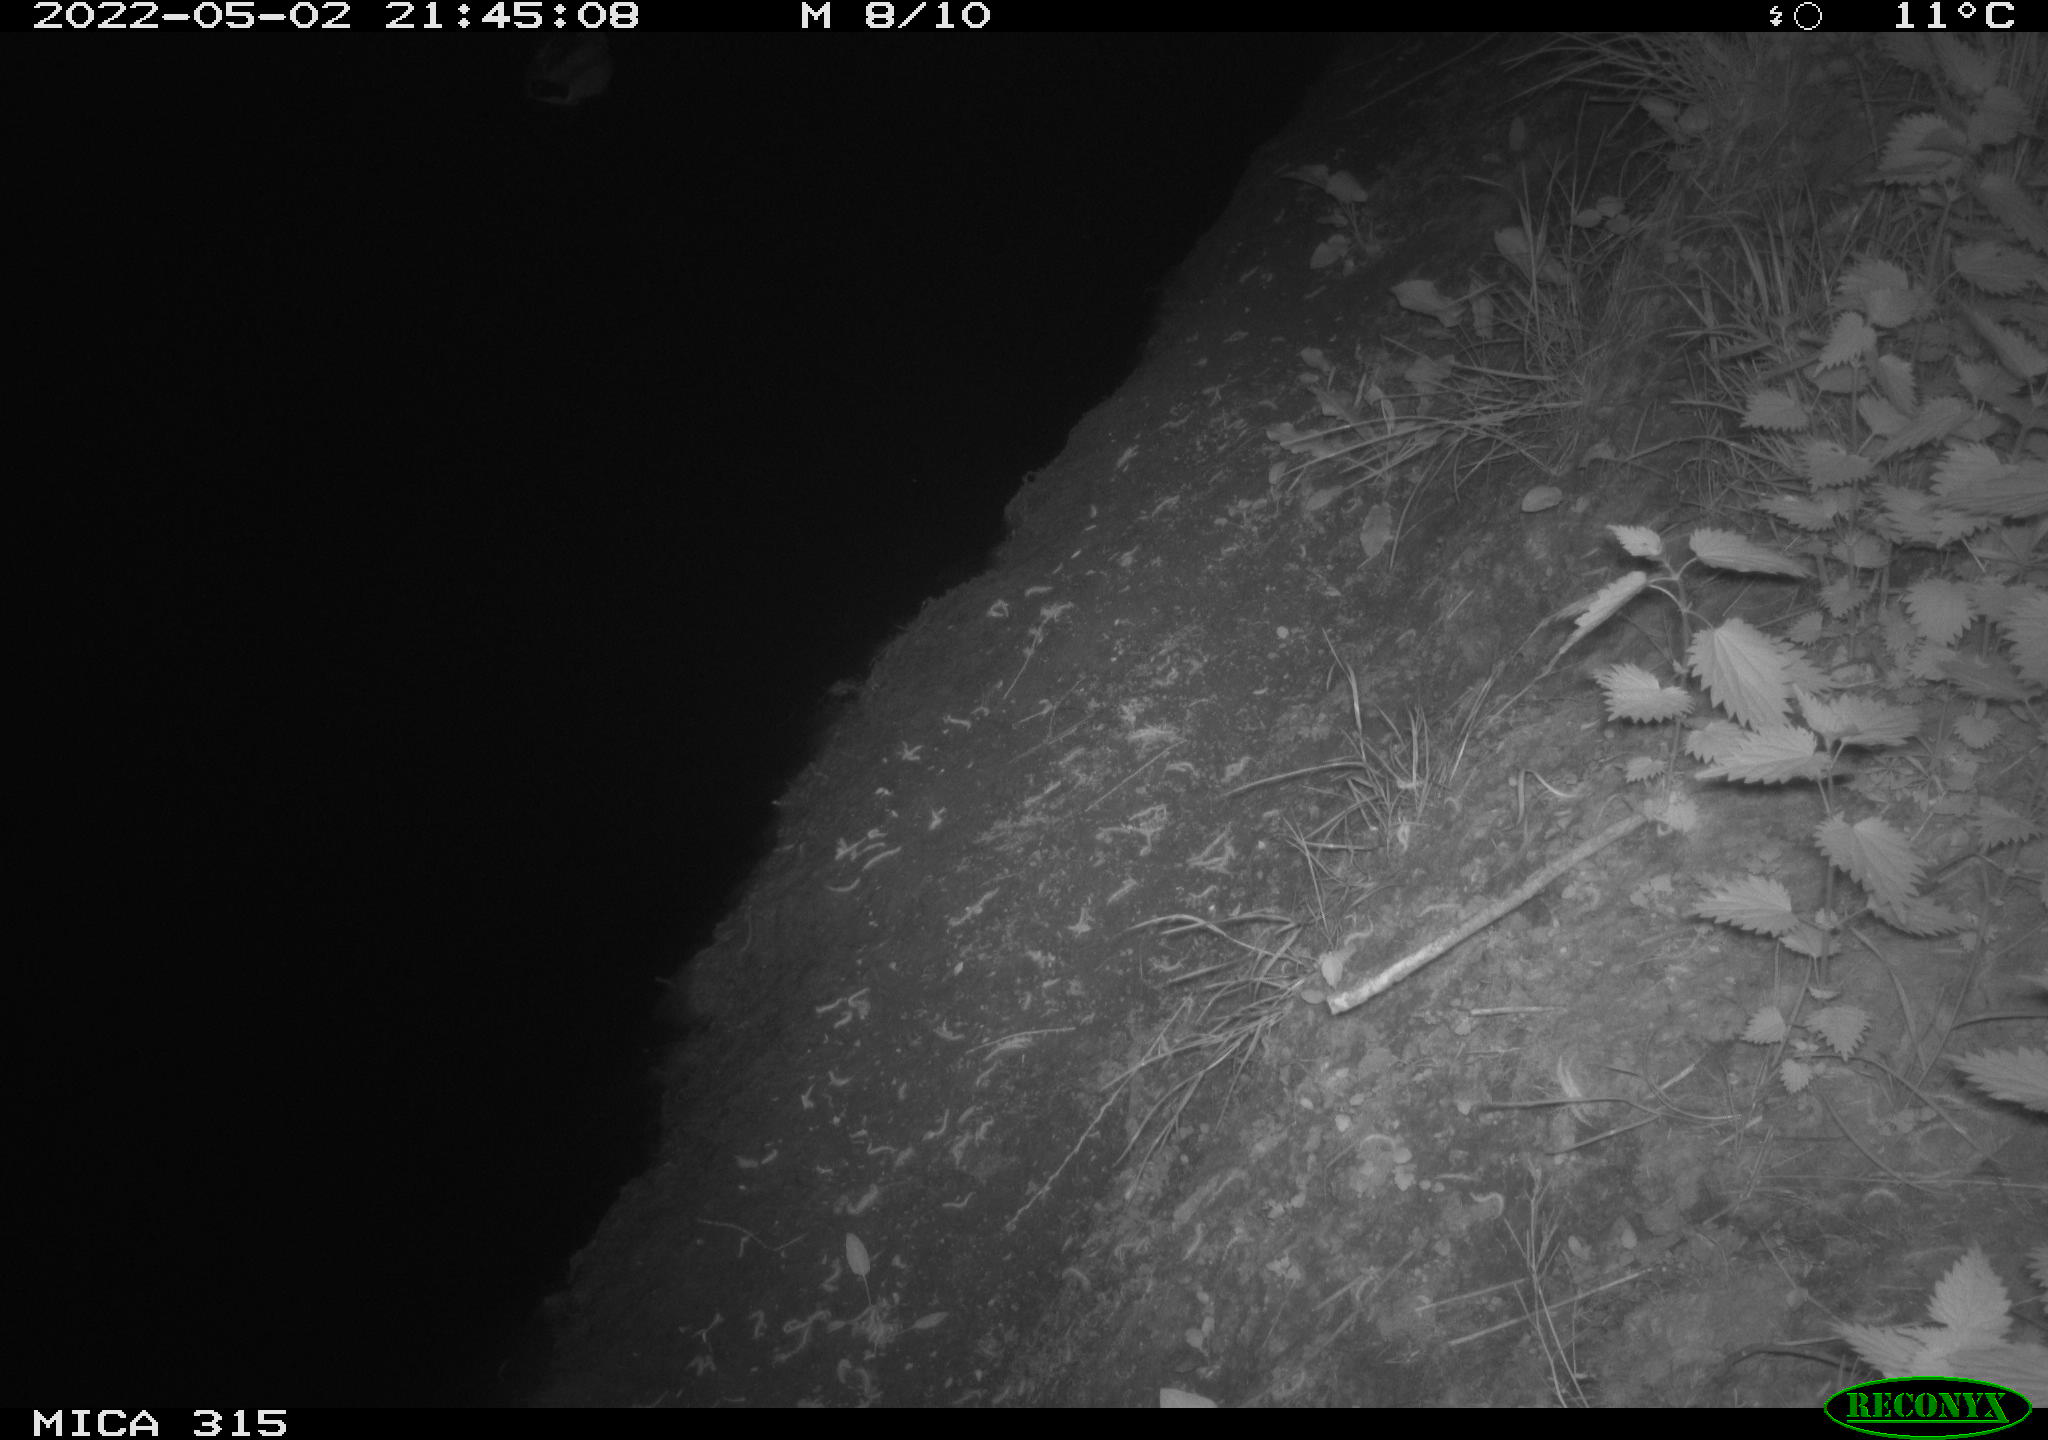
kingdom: Animalia
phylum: Chordata
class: Aves
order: Anseriformes
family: Anatidae
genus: Anas
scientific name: Anas platyrhynchos
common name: Mallard
